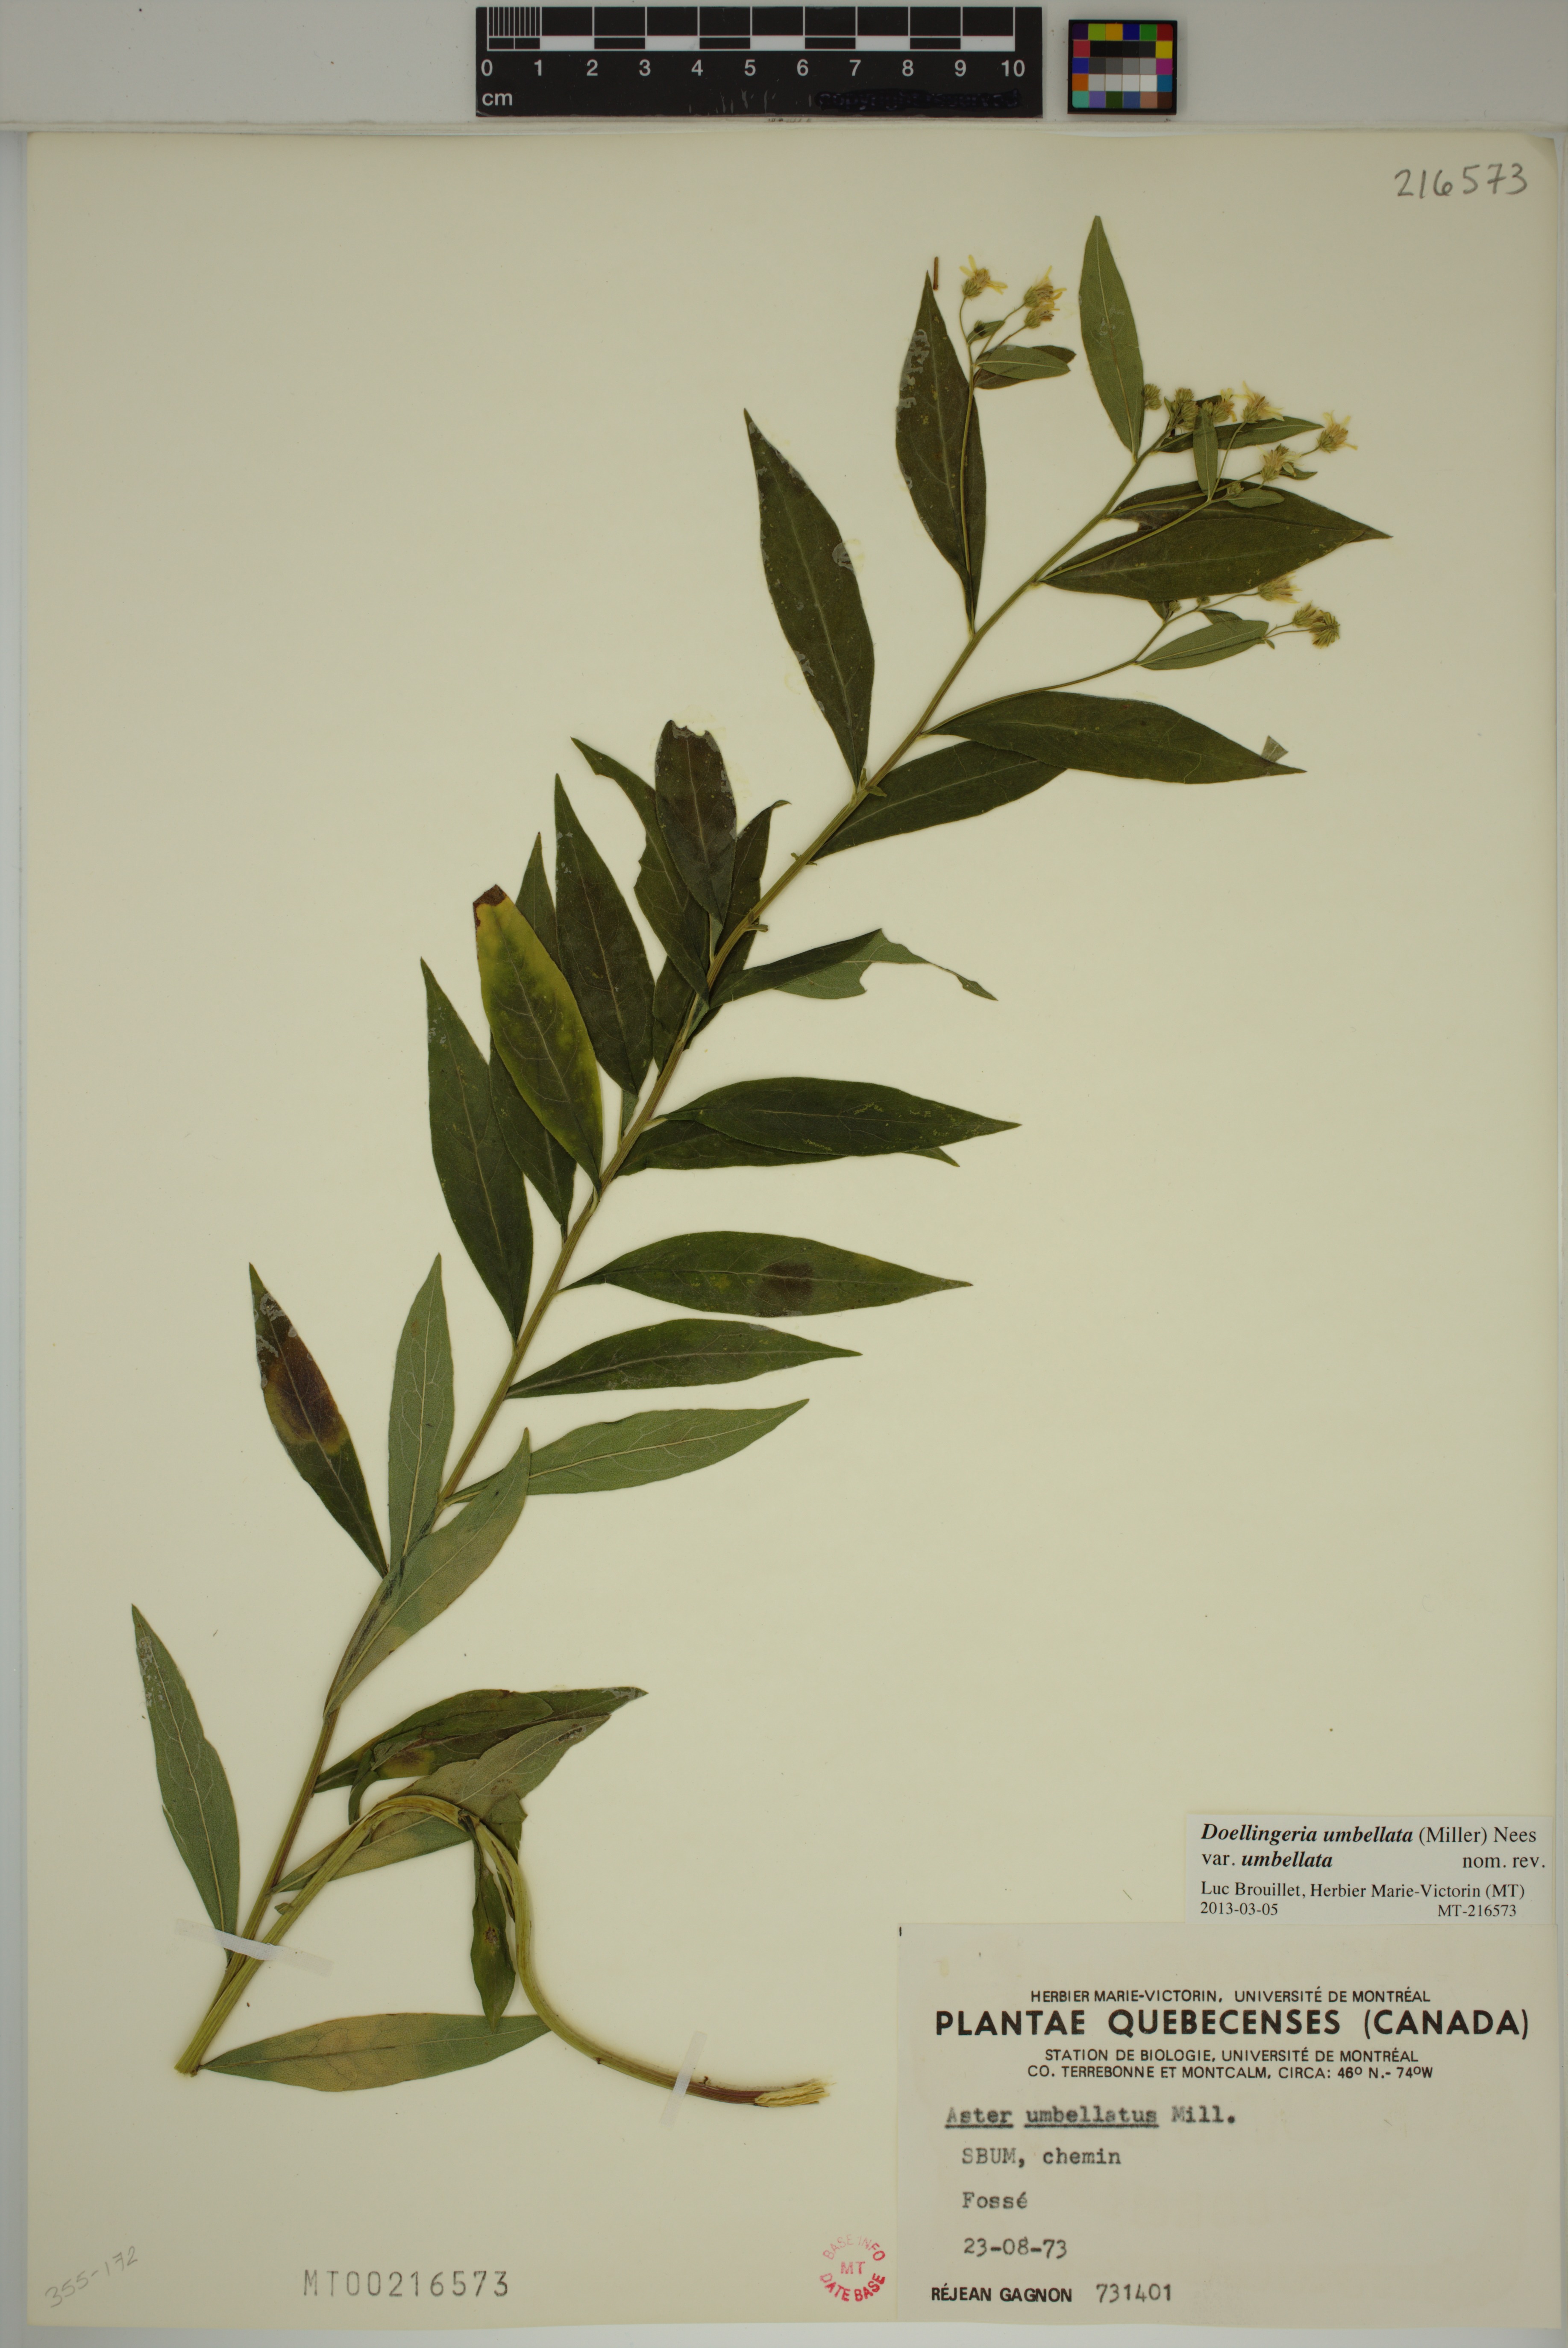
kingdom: Plantae
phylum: Tracheophyta
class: Magnoliopsida
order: Asterales
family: Asteraceae
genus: Doellingeria
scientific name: Doellingeria umbellata
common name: Flat-top white aster
